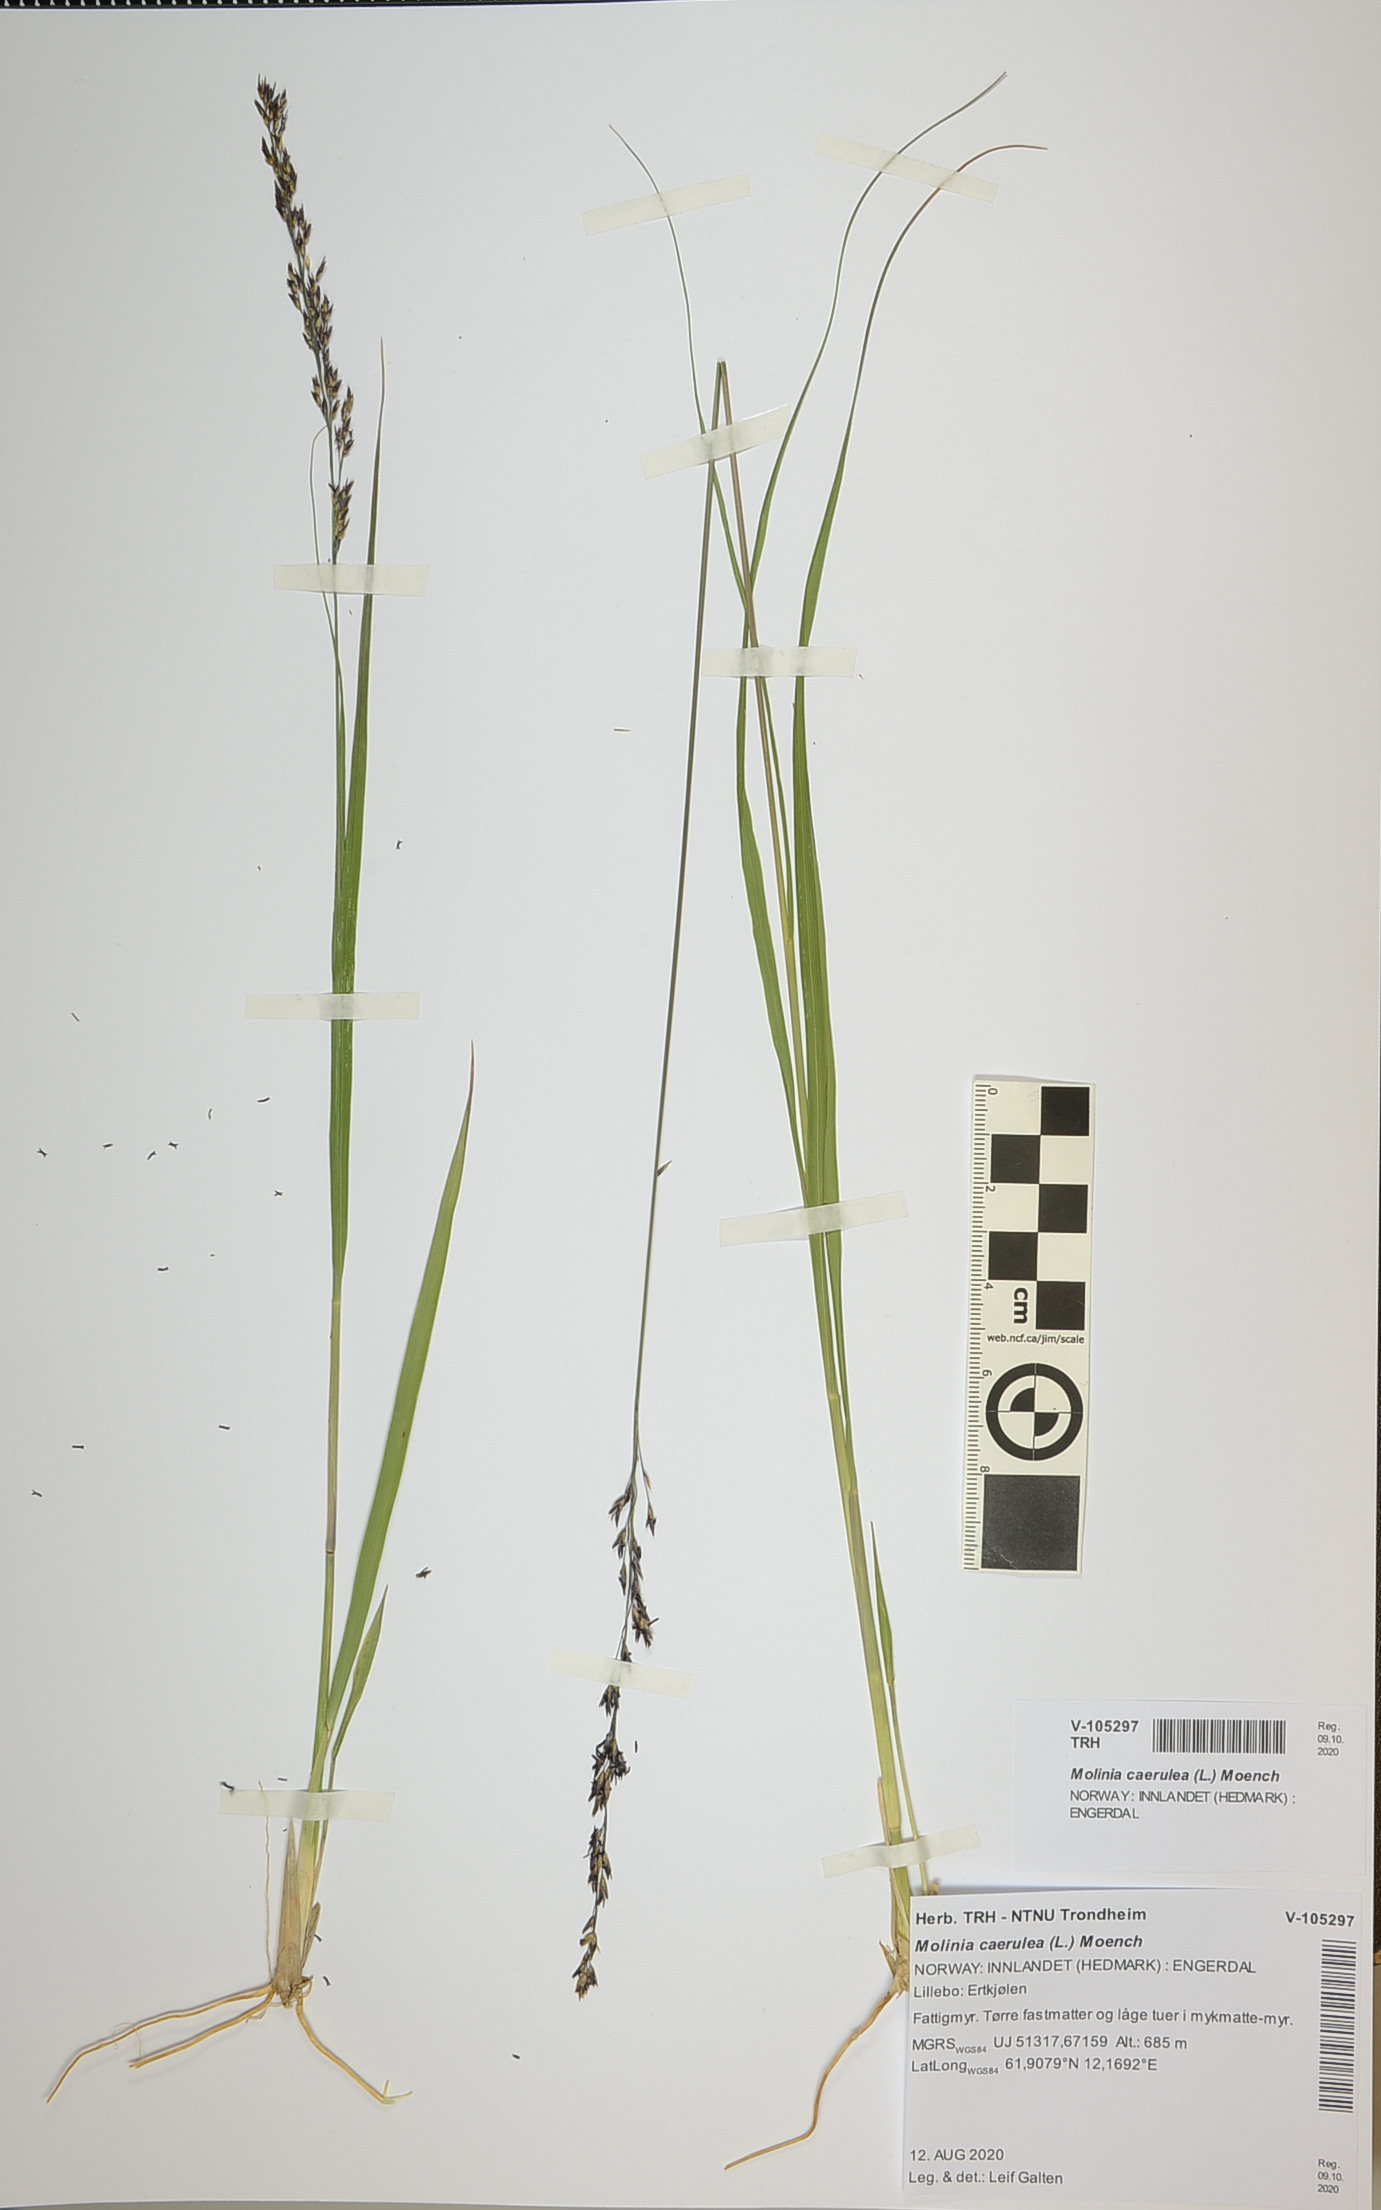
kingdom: Plantae
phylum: Tracheophyta
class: Liliopsida
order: Poales
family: Poaceae
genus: Molinia
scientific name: Molinia caerulea
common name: Purple moor-grass
